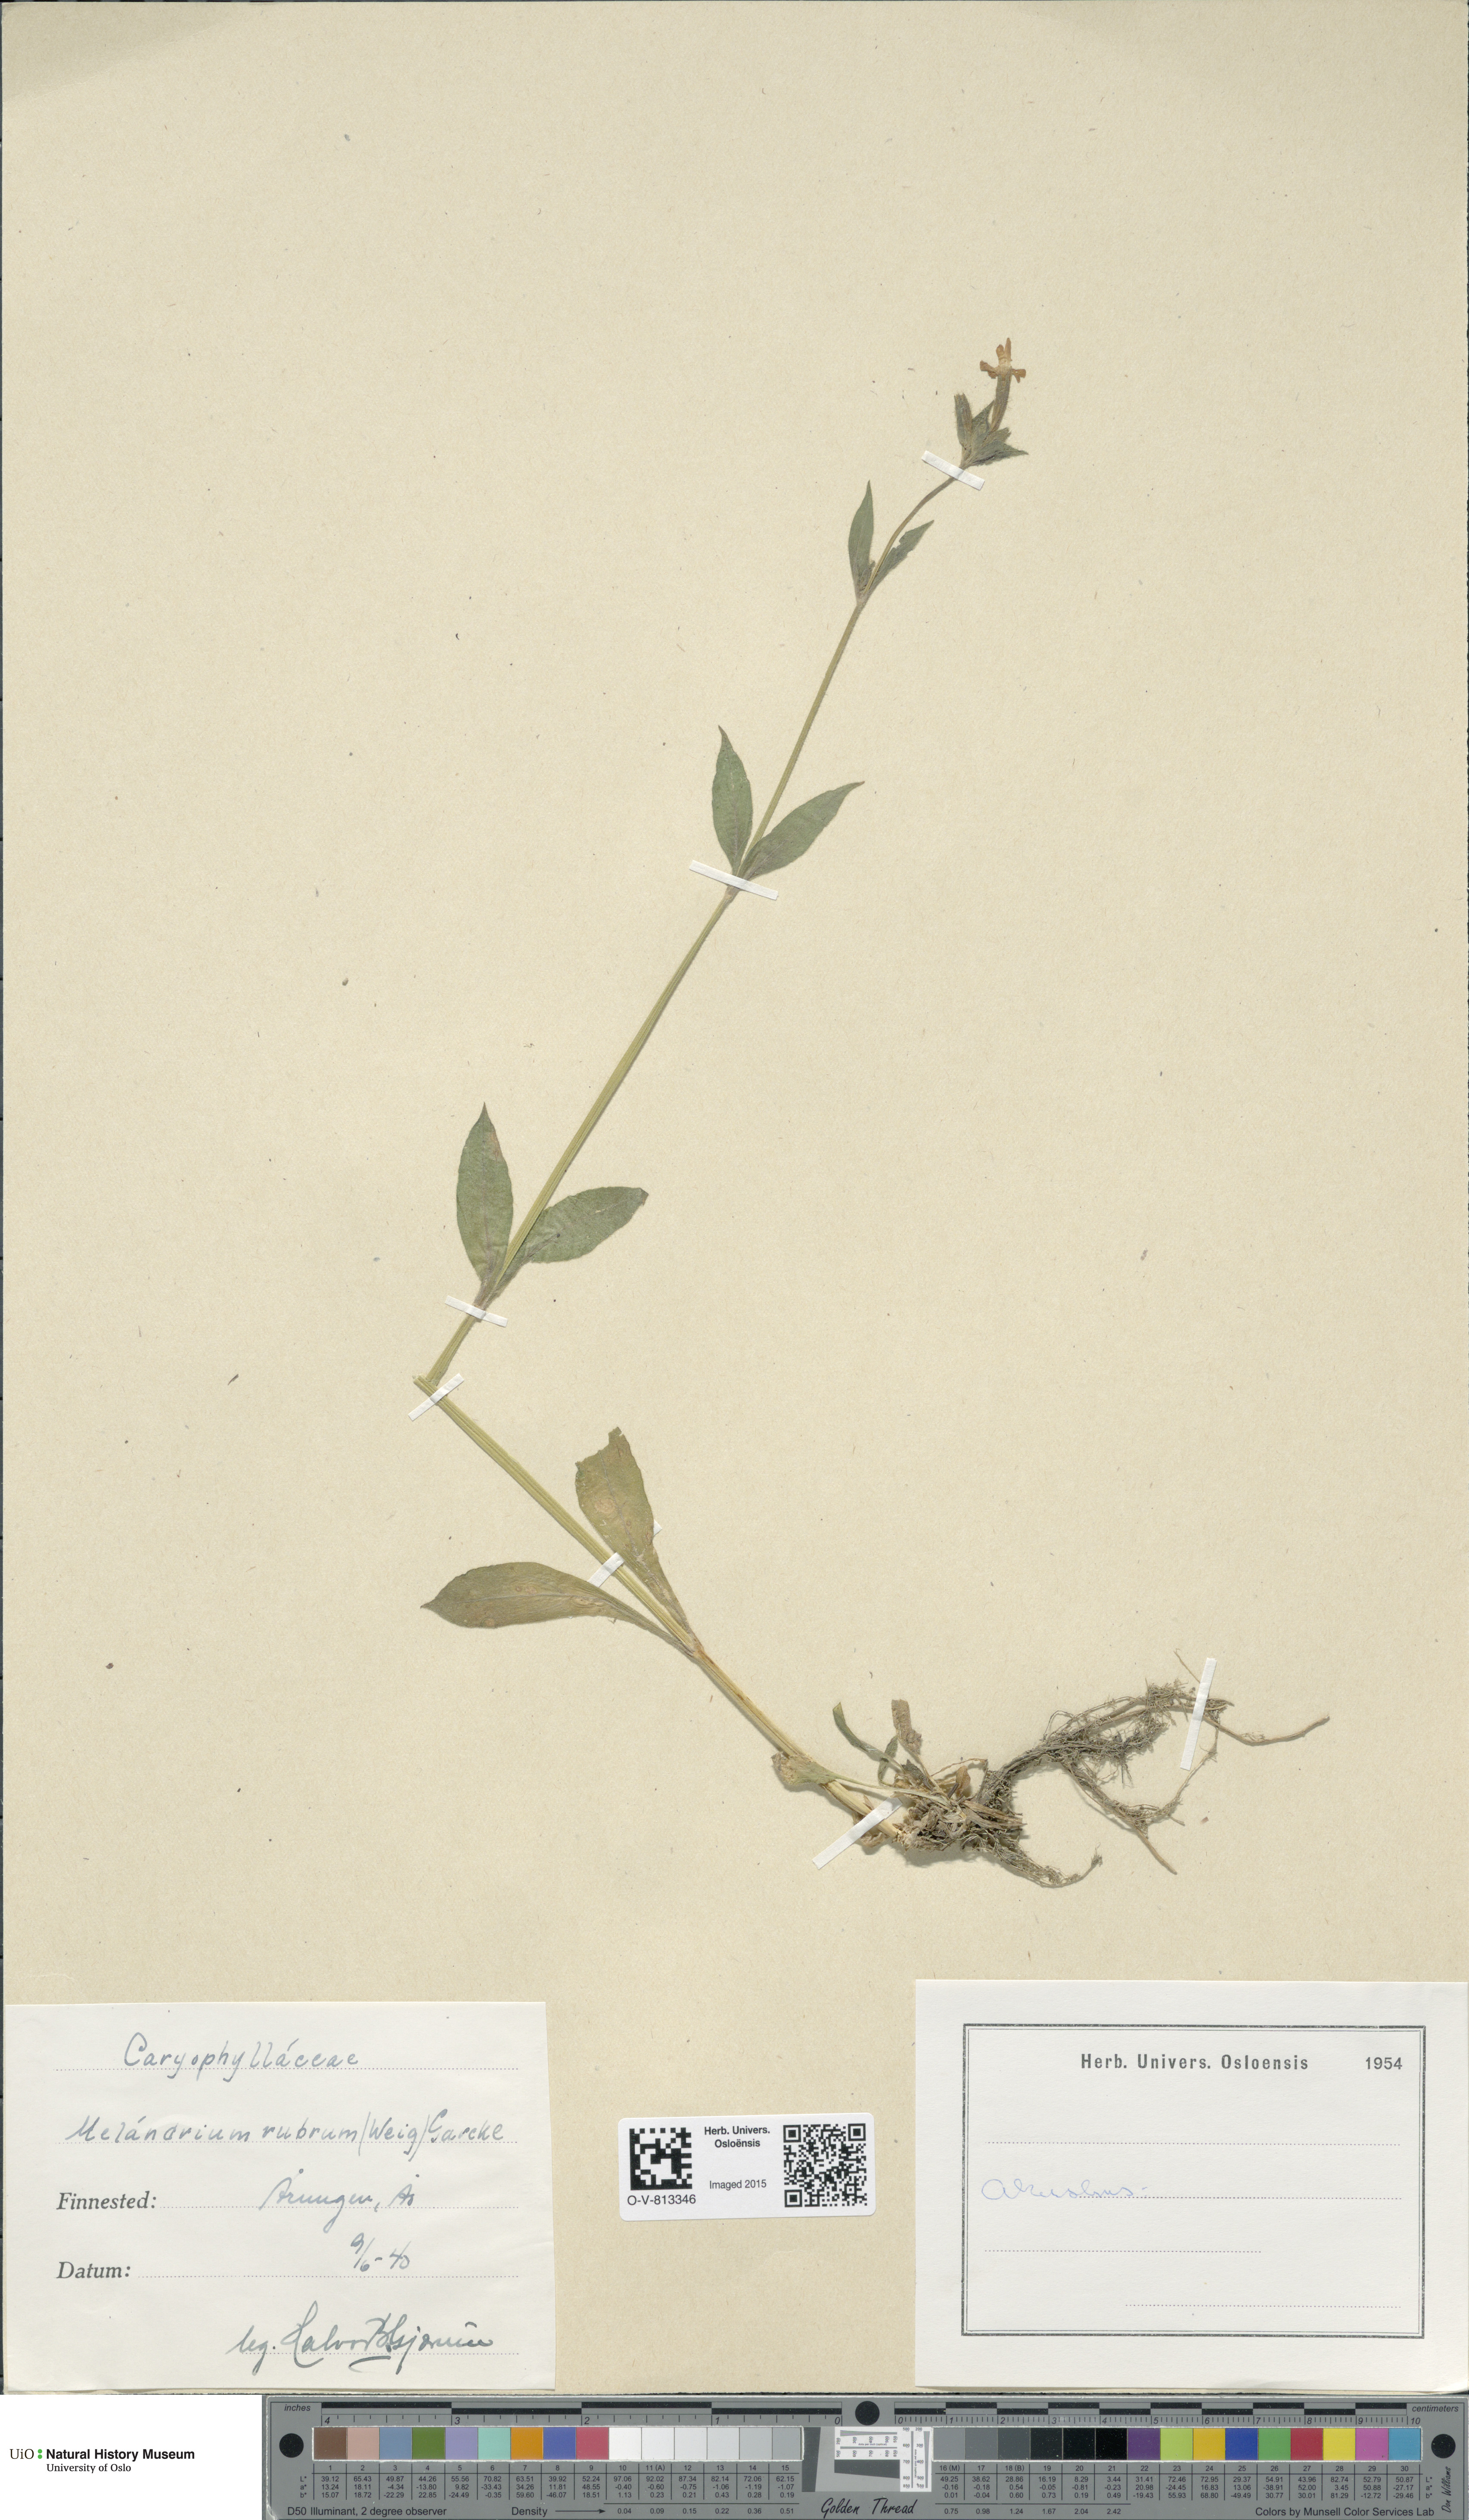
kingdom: Plantae
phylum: Tracheophyta
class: Magnoliopsida
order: Caryophyllales
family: Caryophyllaceae
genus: Silene
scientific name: Silene dioica
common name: Red campion
